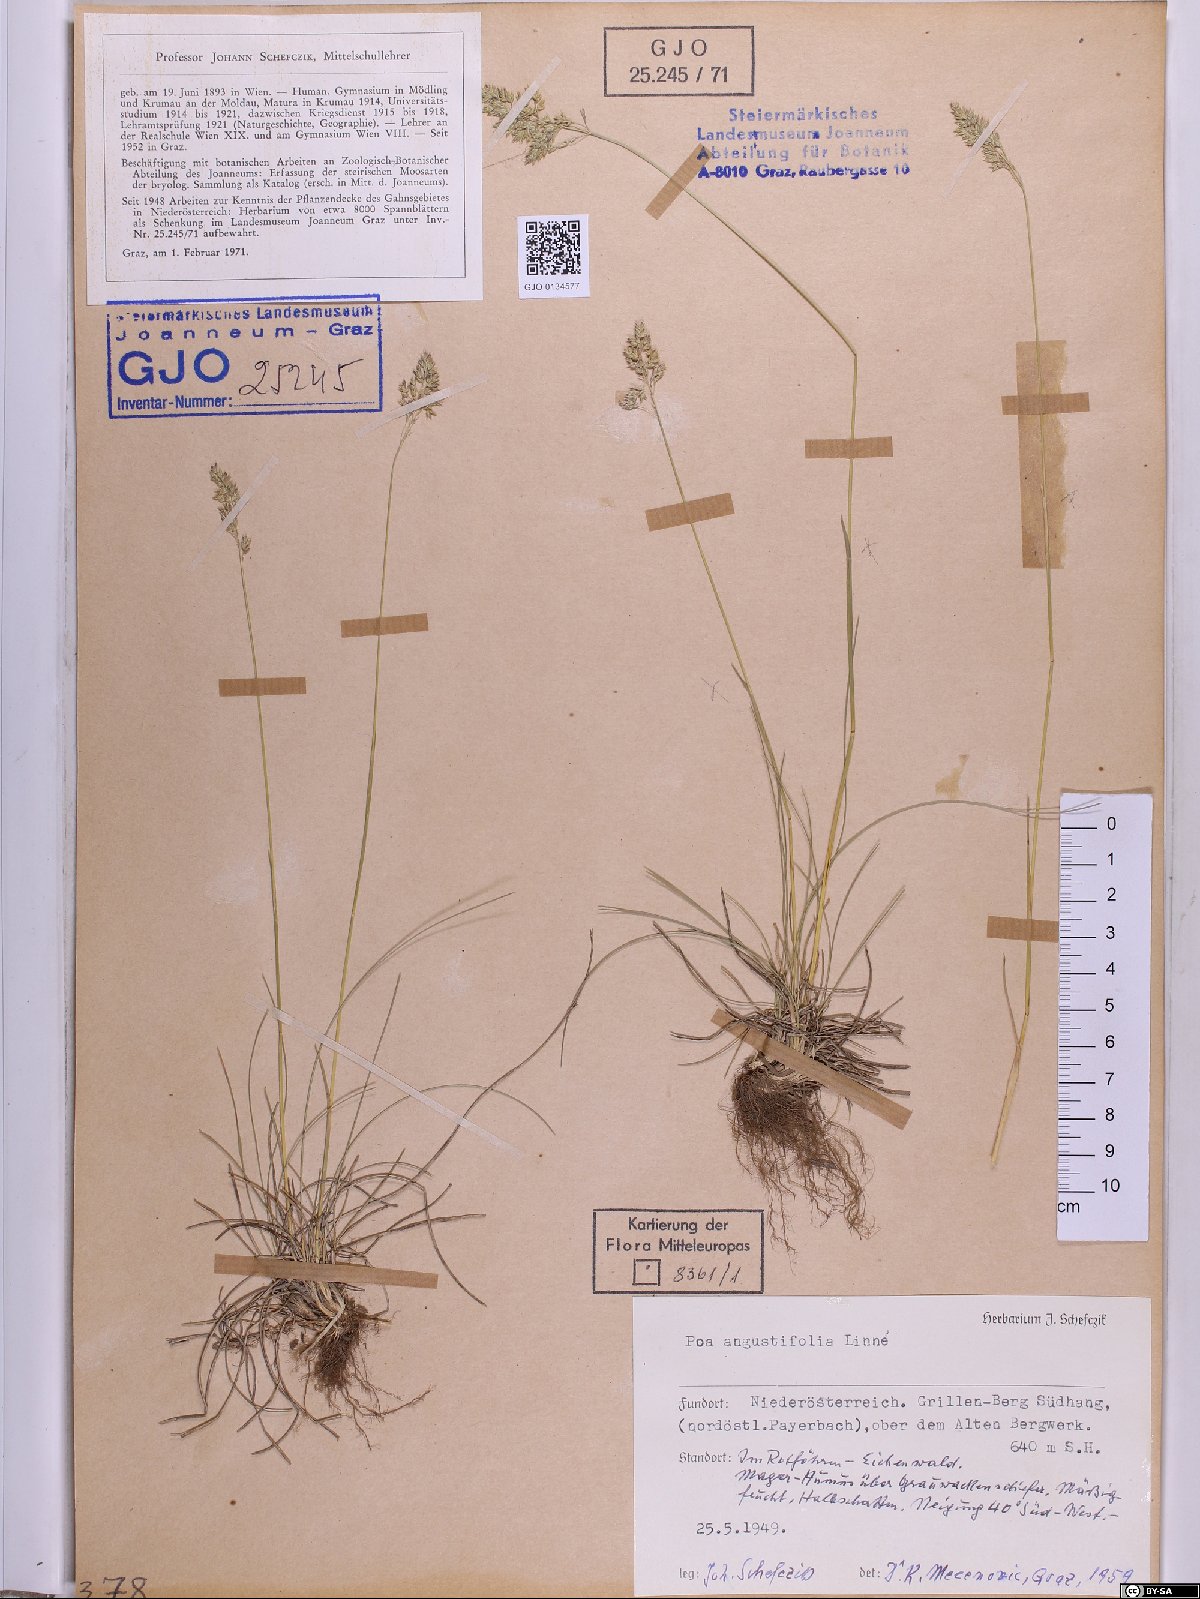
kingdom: Plantae
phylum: Tracheophyta
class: Liliopsida
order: Poales
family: Poaceae
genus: Poa
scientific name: Poa angustifolia
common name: Narrow-leaved meadow-grass
